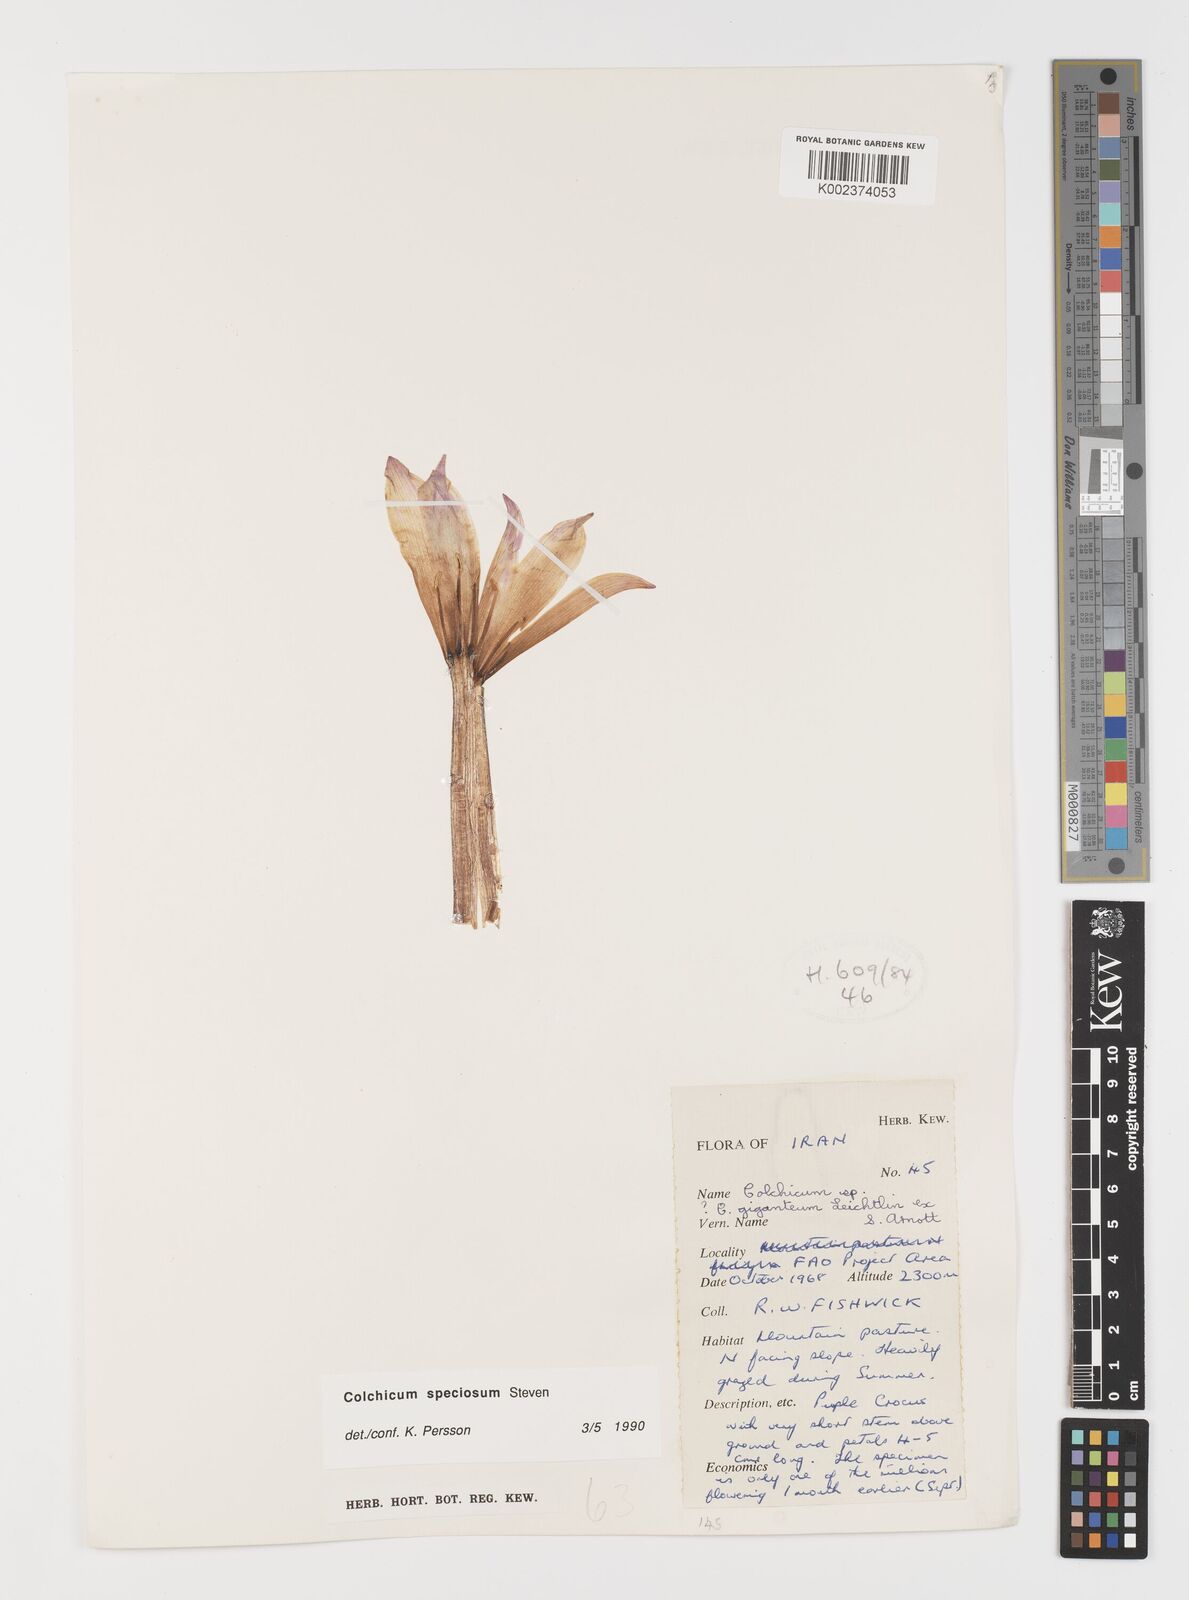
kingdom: Plantae
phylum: Tracheophyta
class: Liliopsida
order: Liliales
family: Colchicaceae
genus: Colchicum
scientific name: Colchicum speciosum
